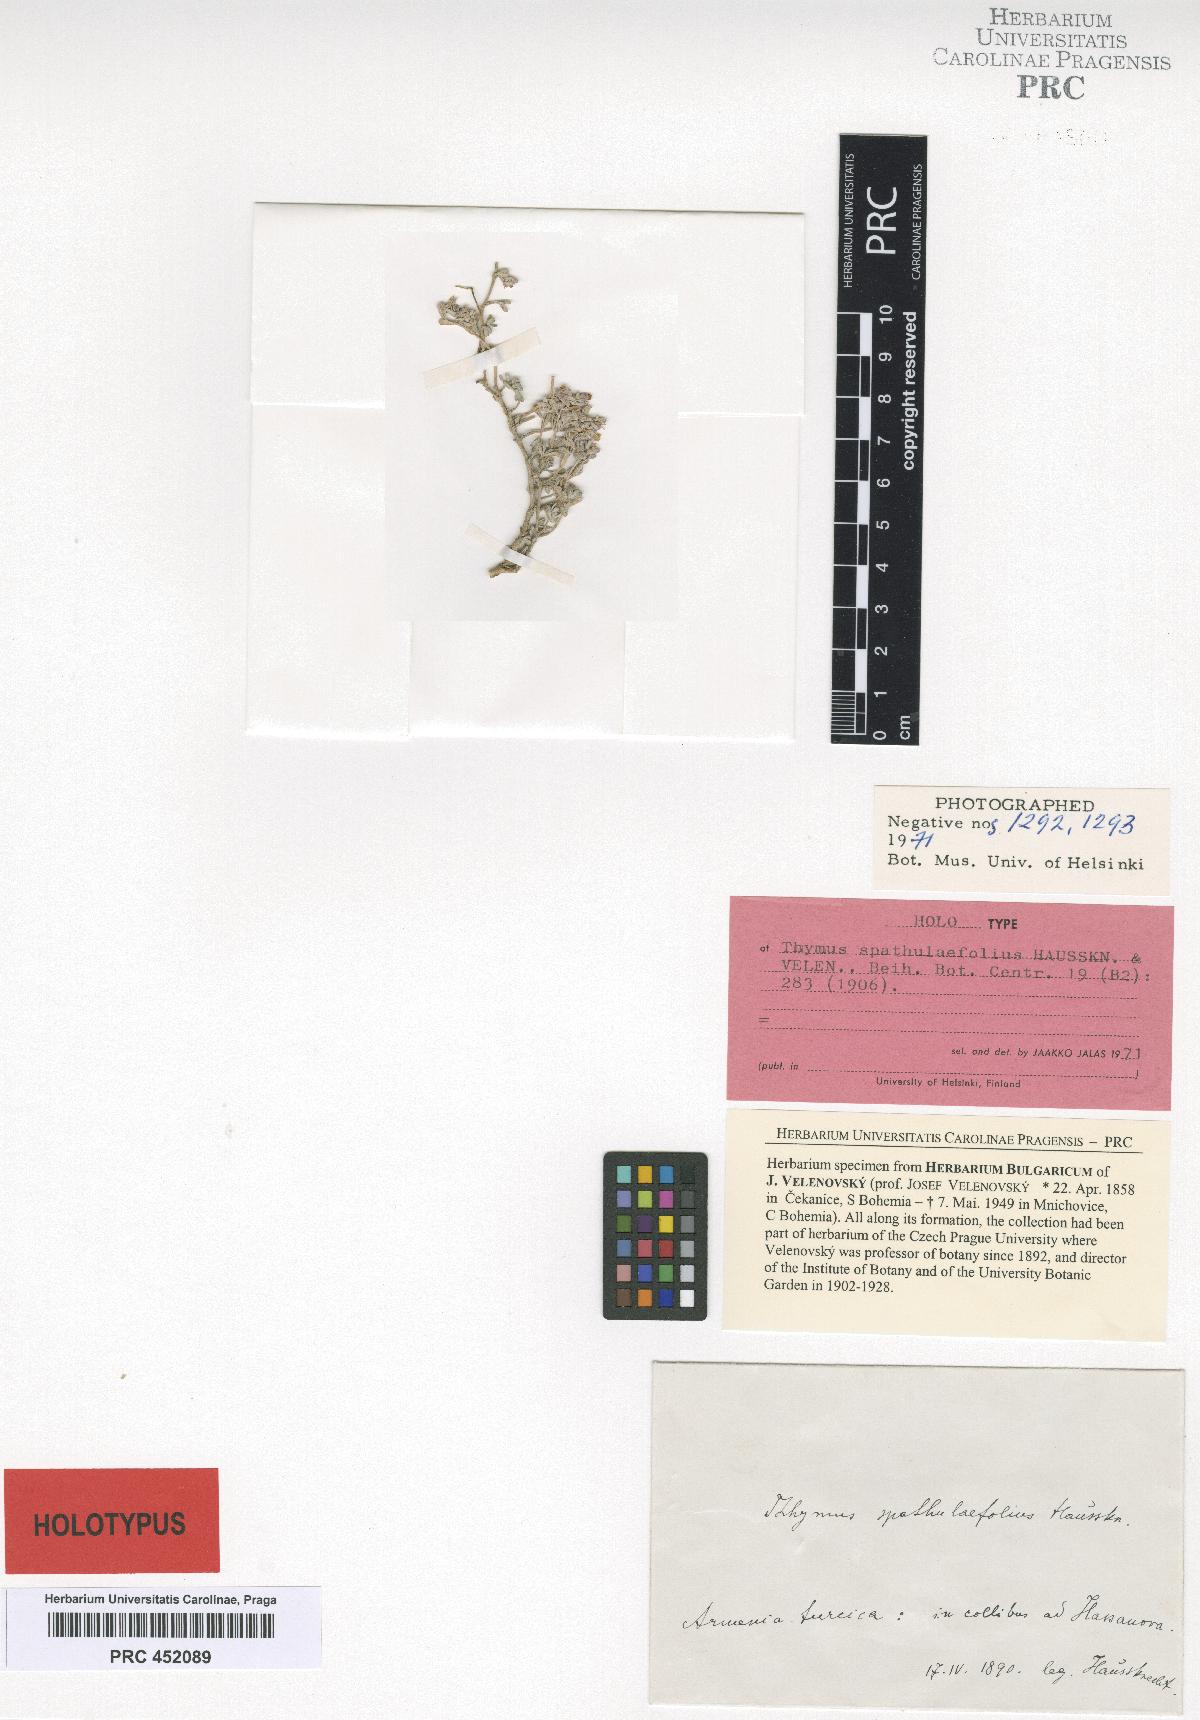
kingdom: Plantae
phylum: Tracheophyta
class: Magnoliopsida
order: Lamiales
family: Lamiaceae
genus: Thymus
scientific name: Thymus spathulifolius
